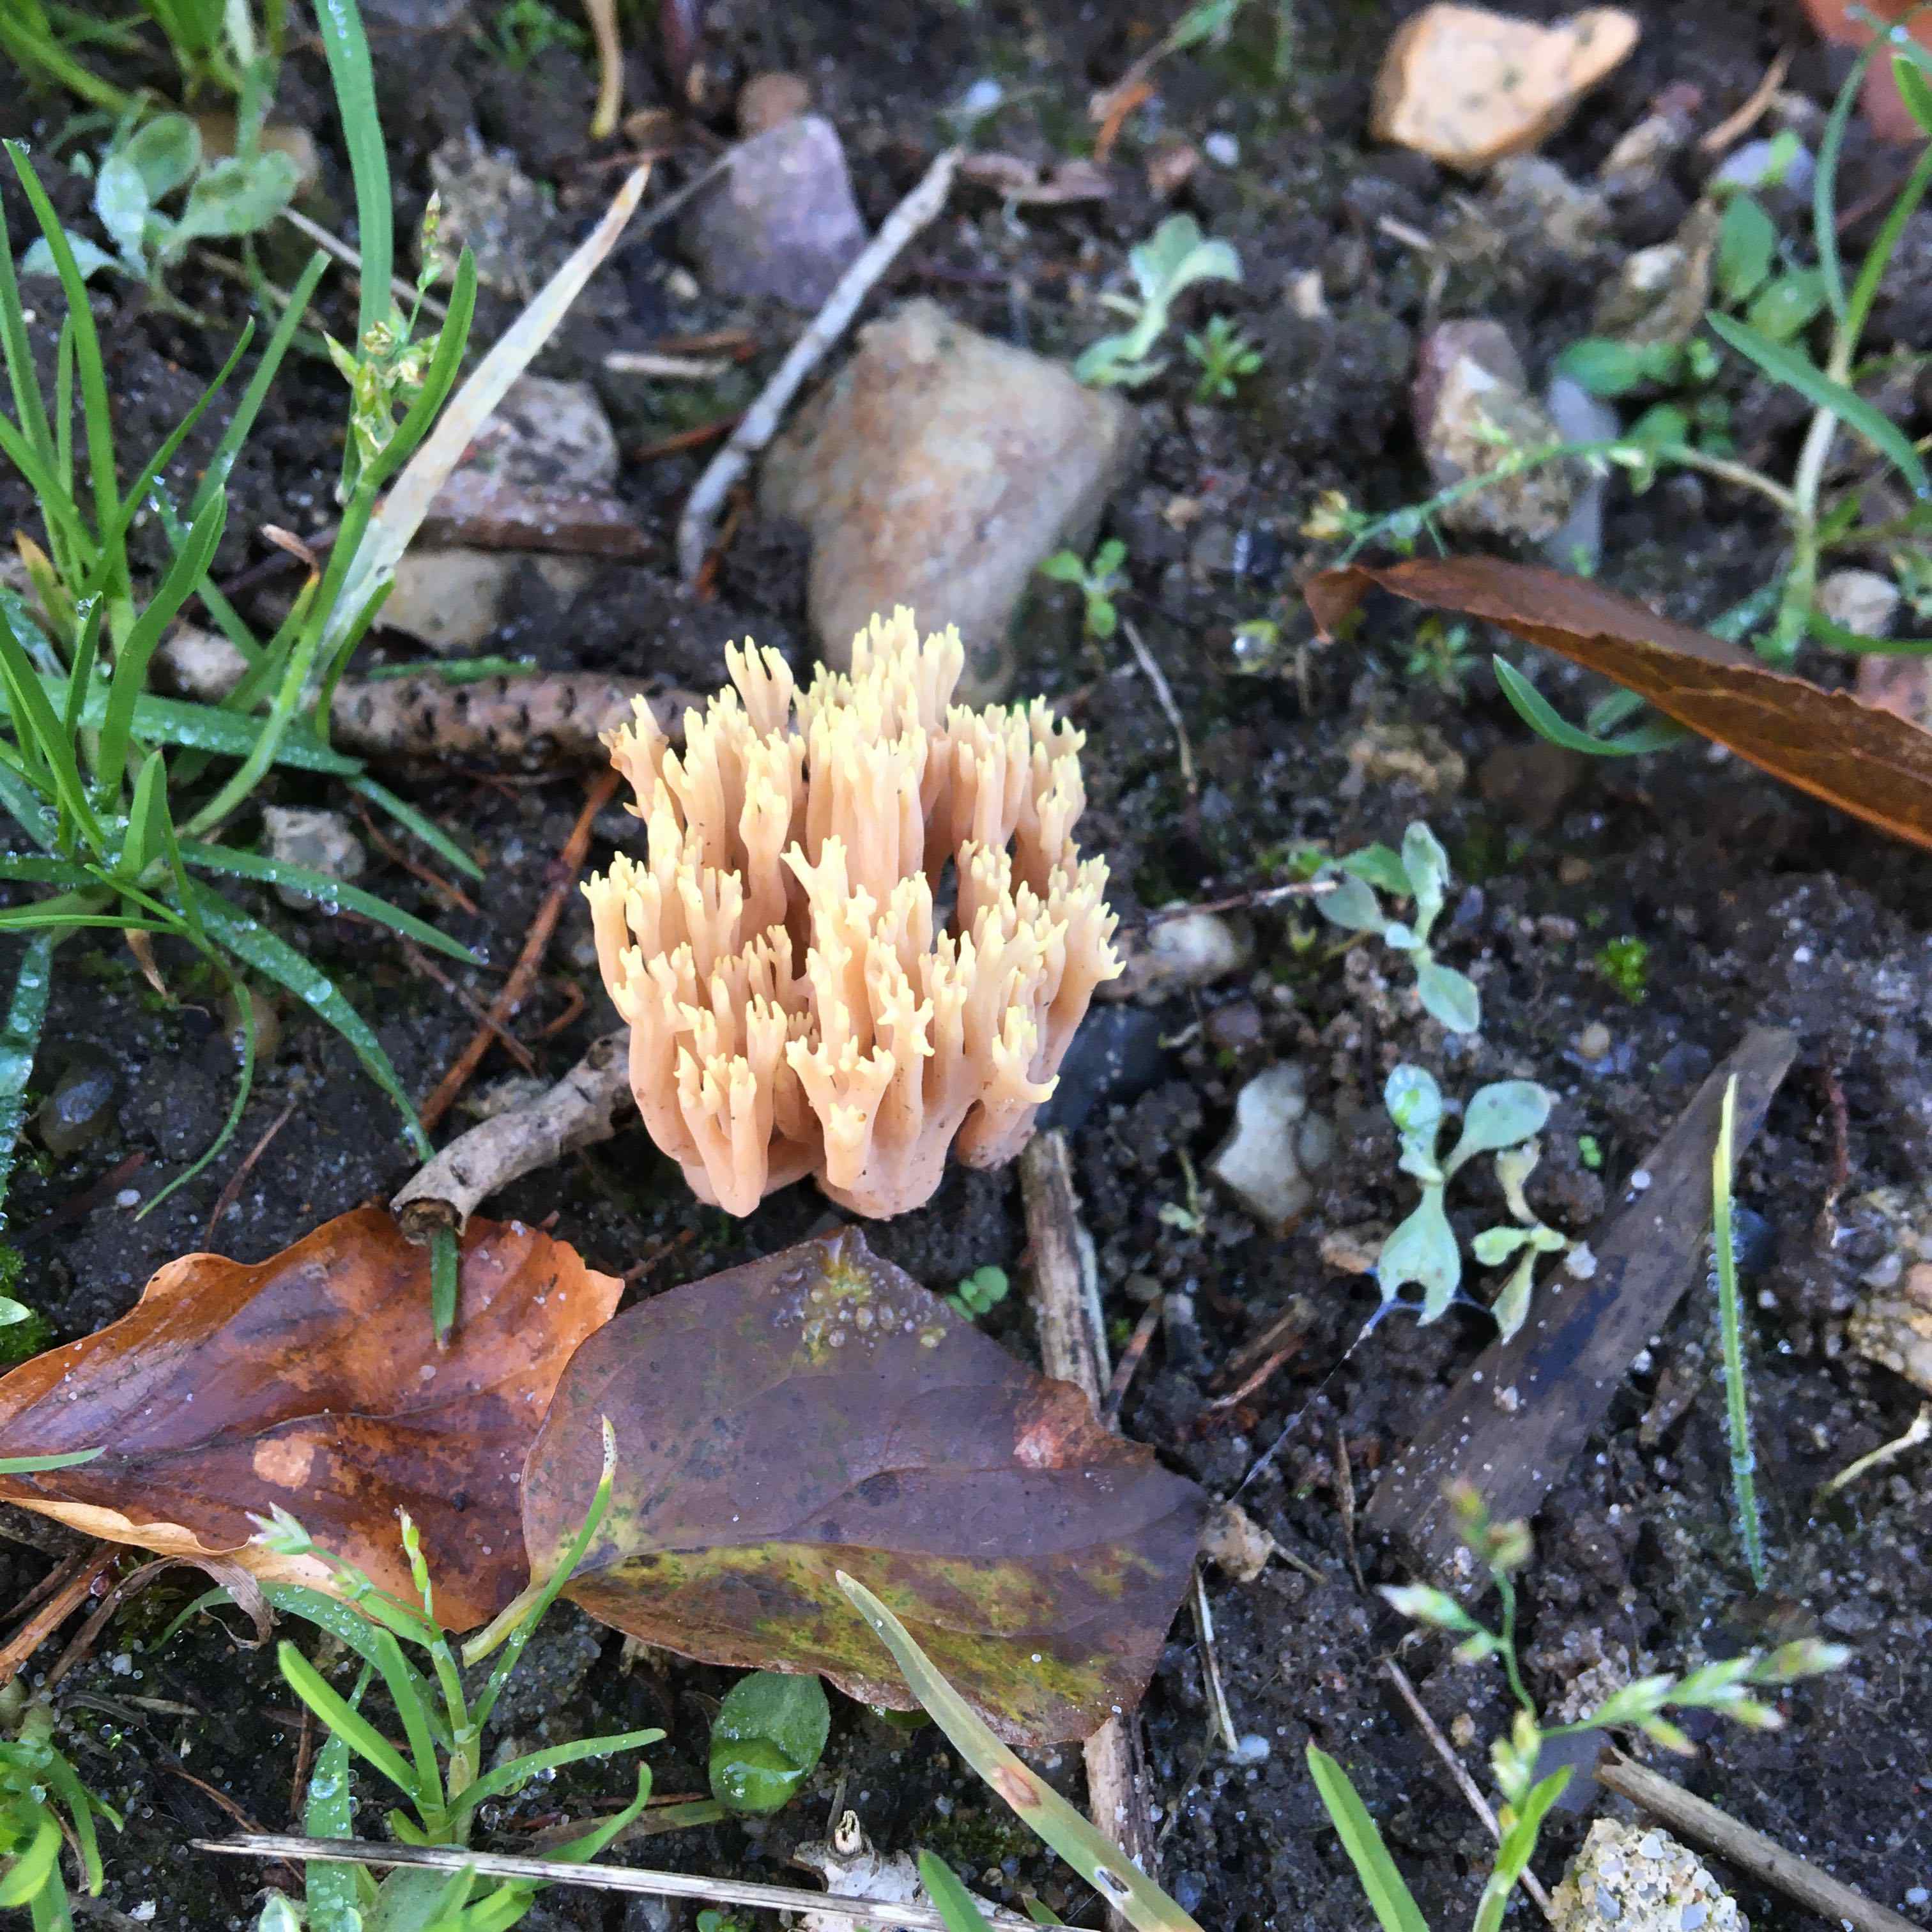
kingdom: Fungi
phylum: Basidiomycota
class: Agaricomycetes
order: Gomphales
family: Gomphaceae
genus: Ramaria
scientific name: Ramaria stricta
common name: rank koralsvamp
